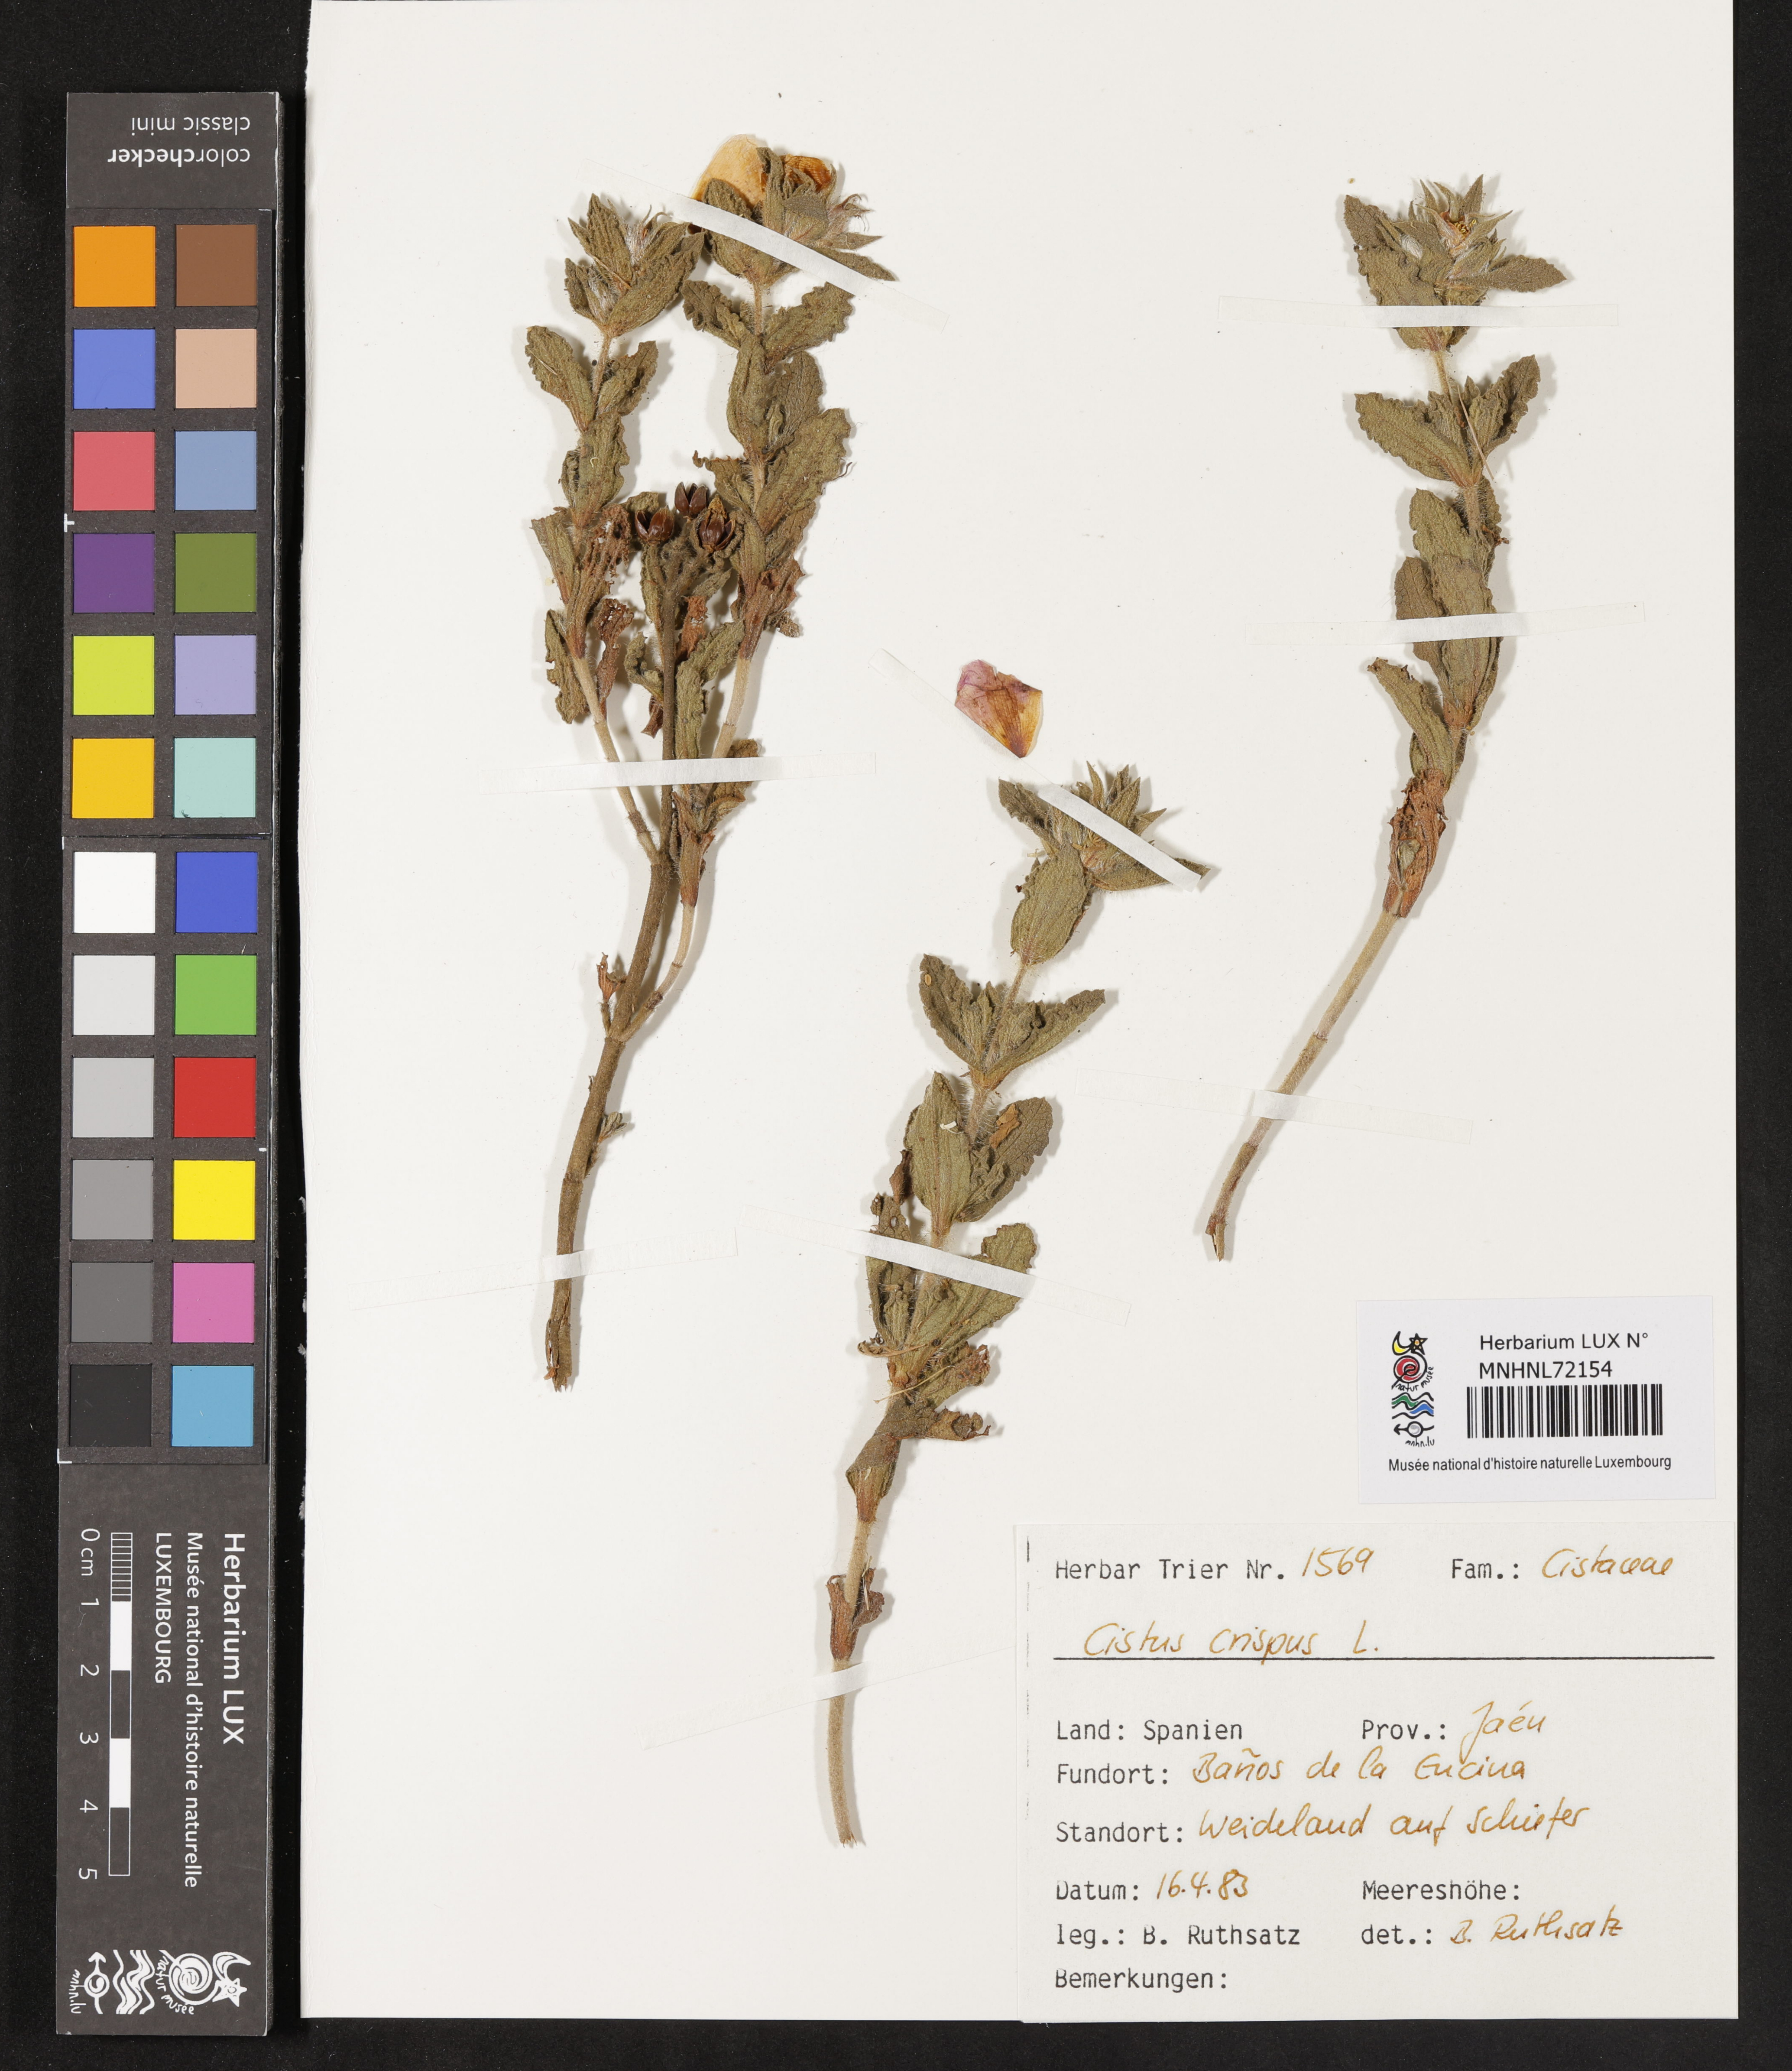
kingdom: Plantae
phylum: Tracheophyta
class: Magnoliopsida
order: Malvales
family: Cistaceae
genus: Cistus
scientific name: Cistus crispus
